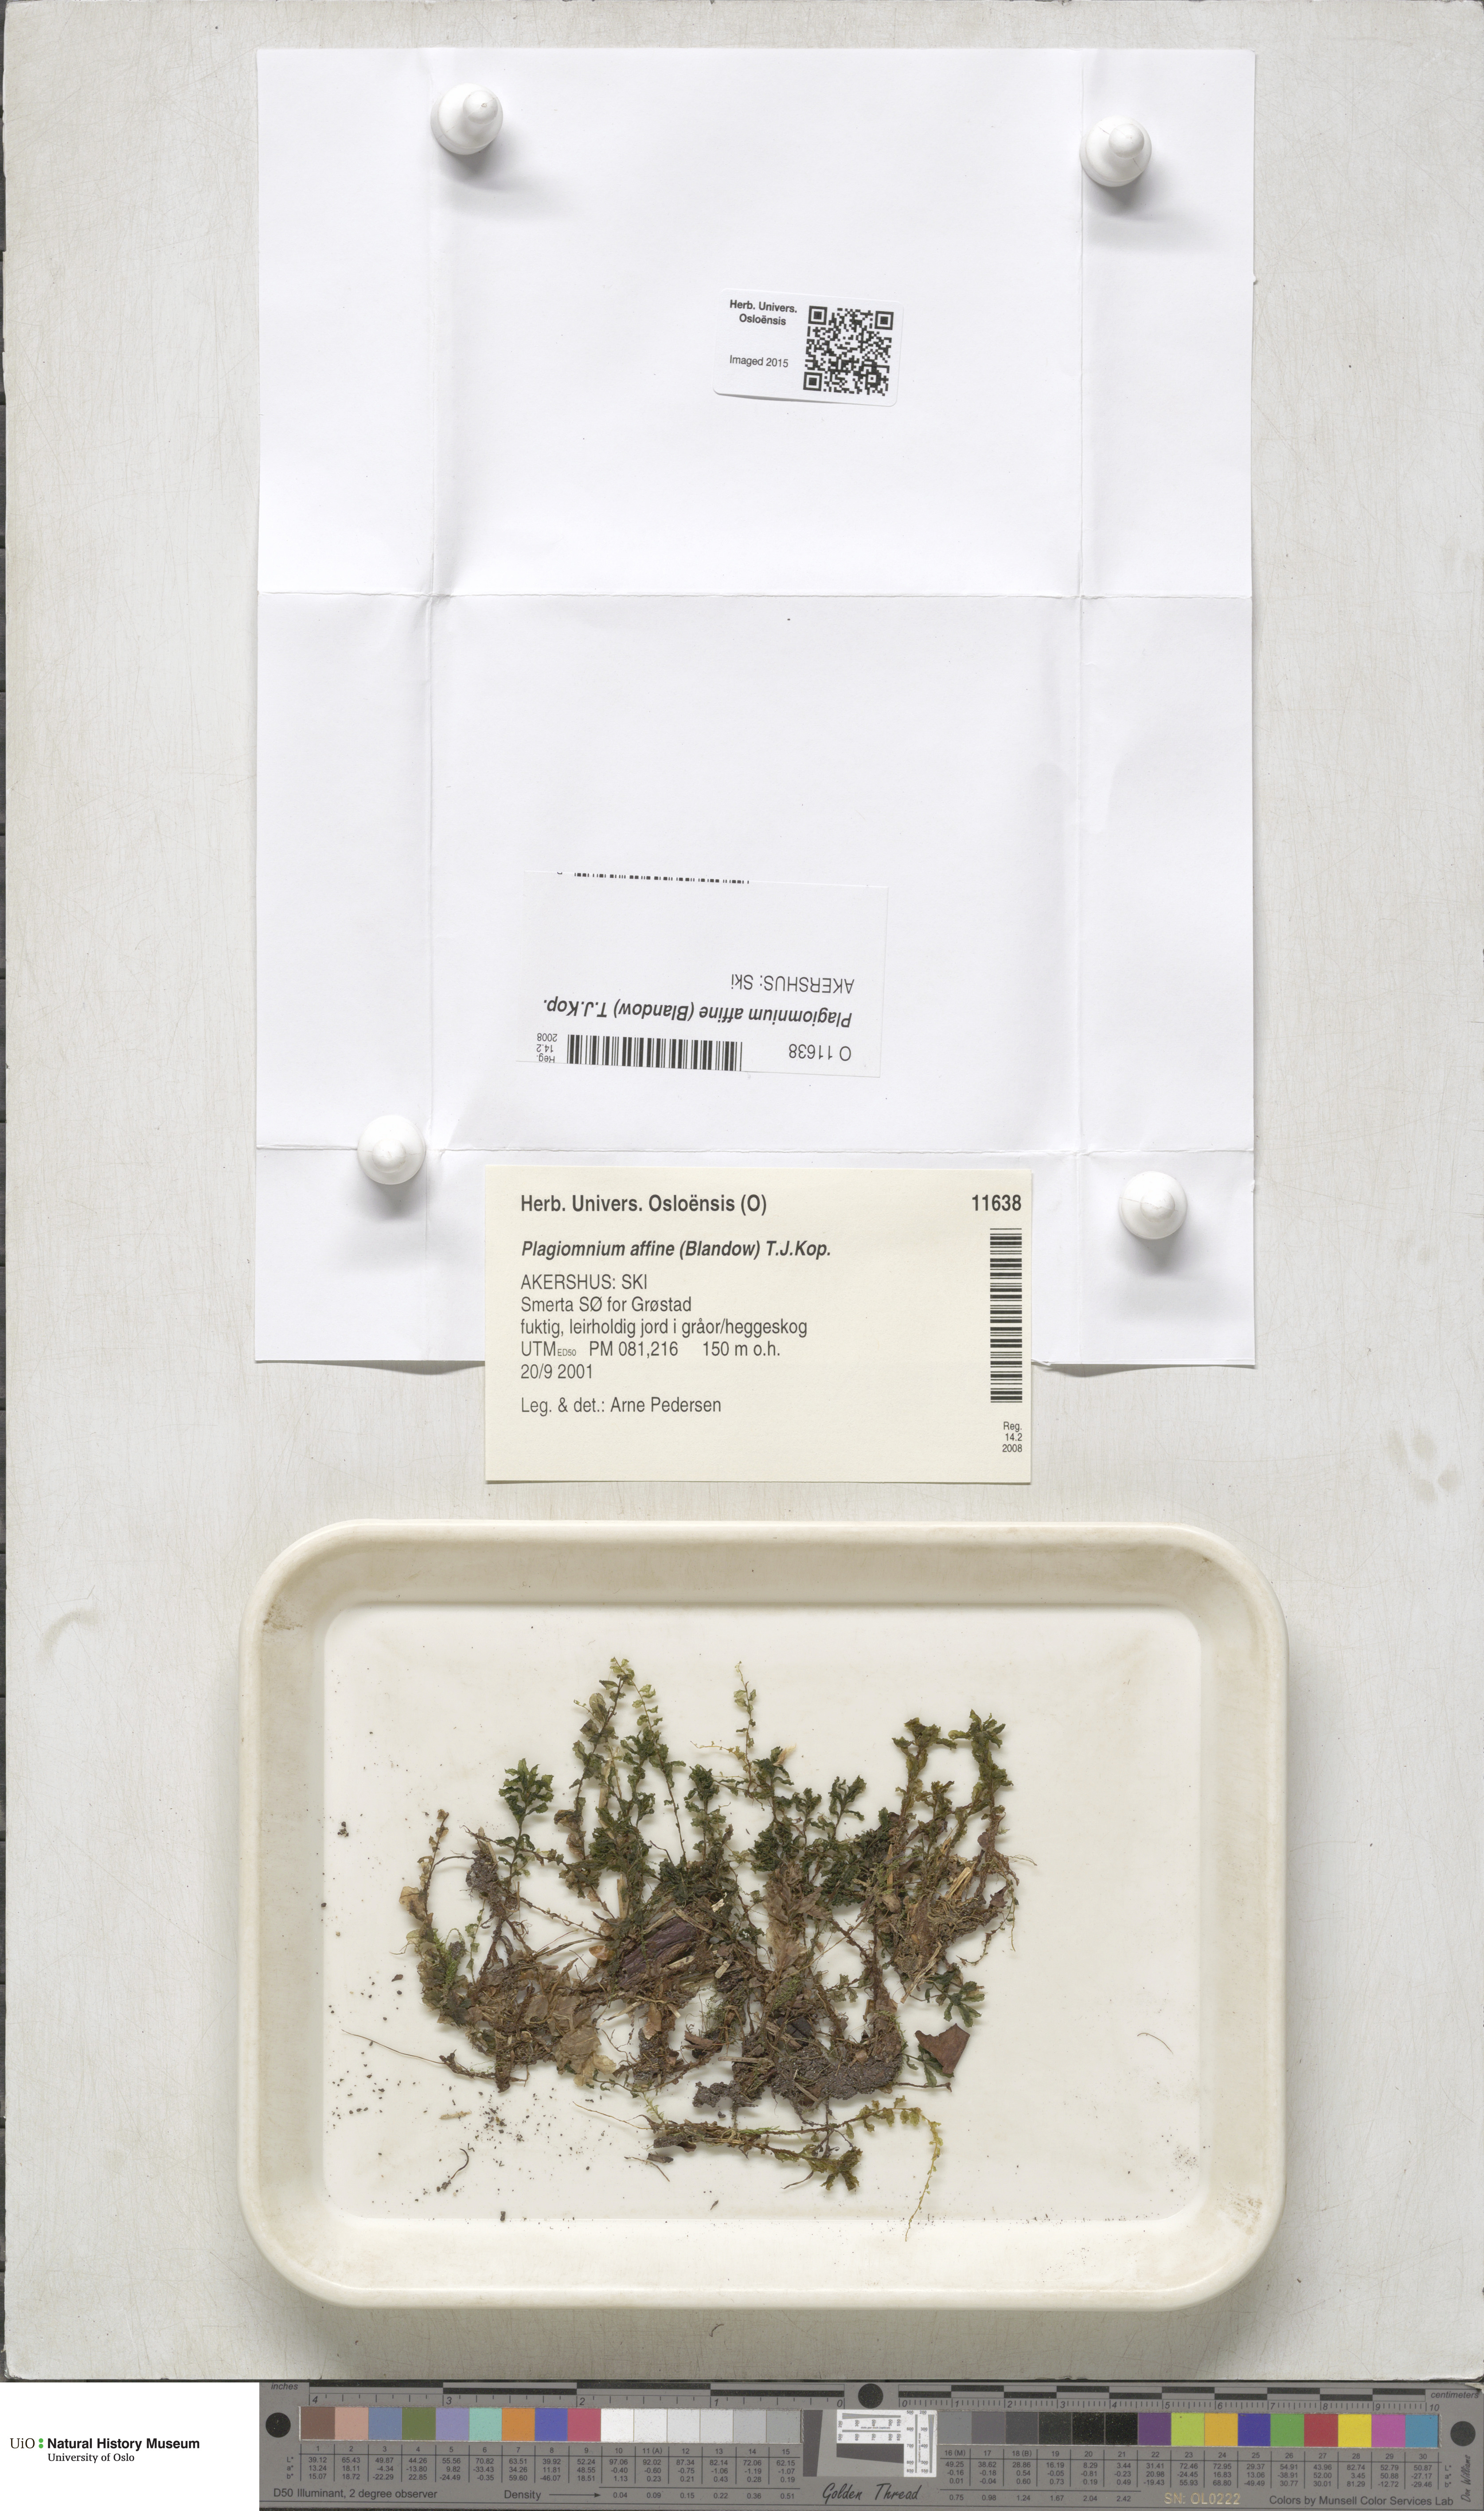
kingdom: Plantae
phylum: Bryophyta
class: Bryopsida
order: Bryales
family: Mniaceae
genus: Plagiomnium
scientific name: Plagiomnium affine
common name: Many-fruited thyme-moss
